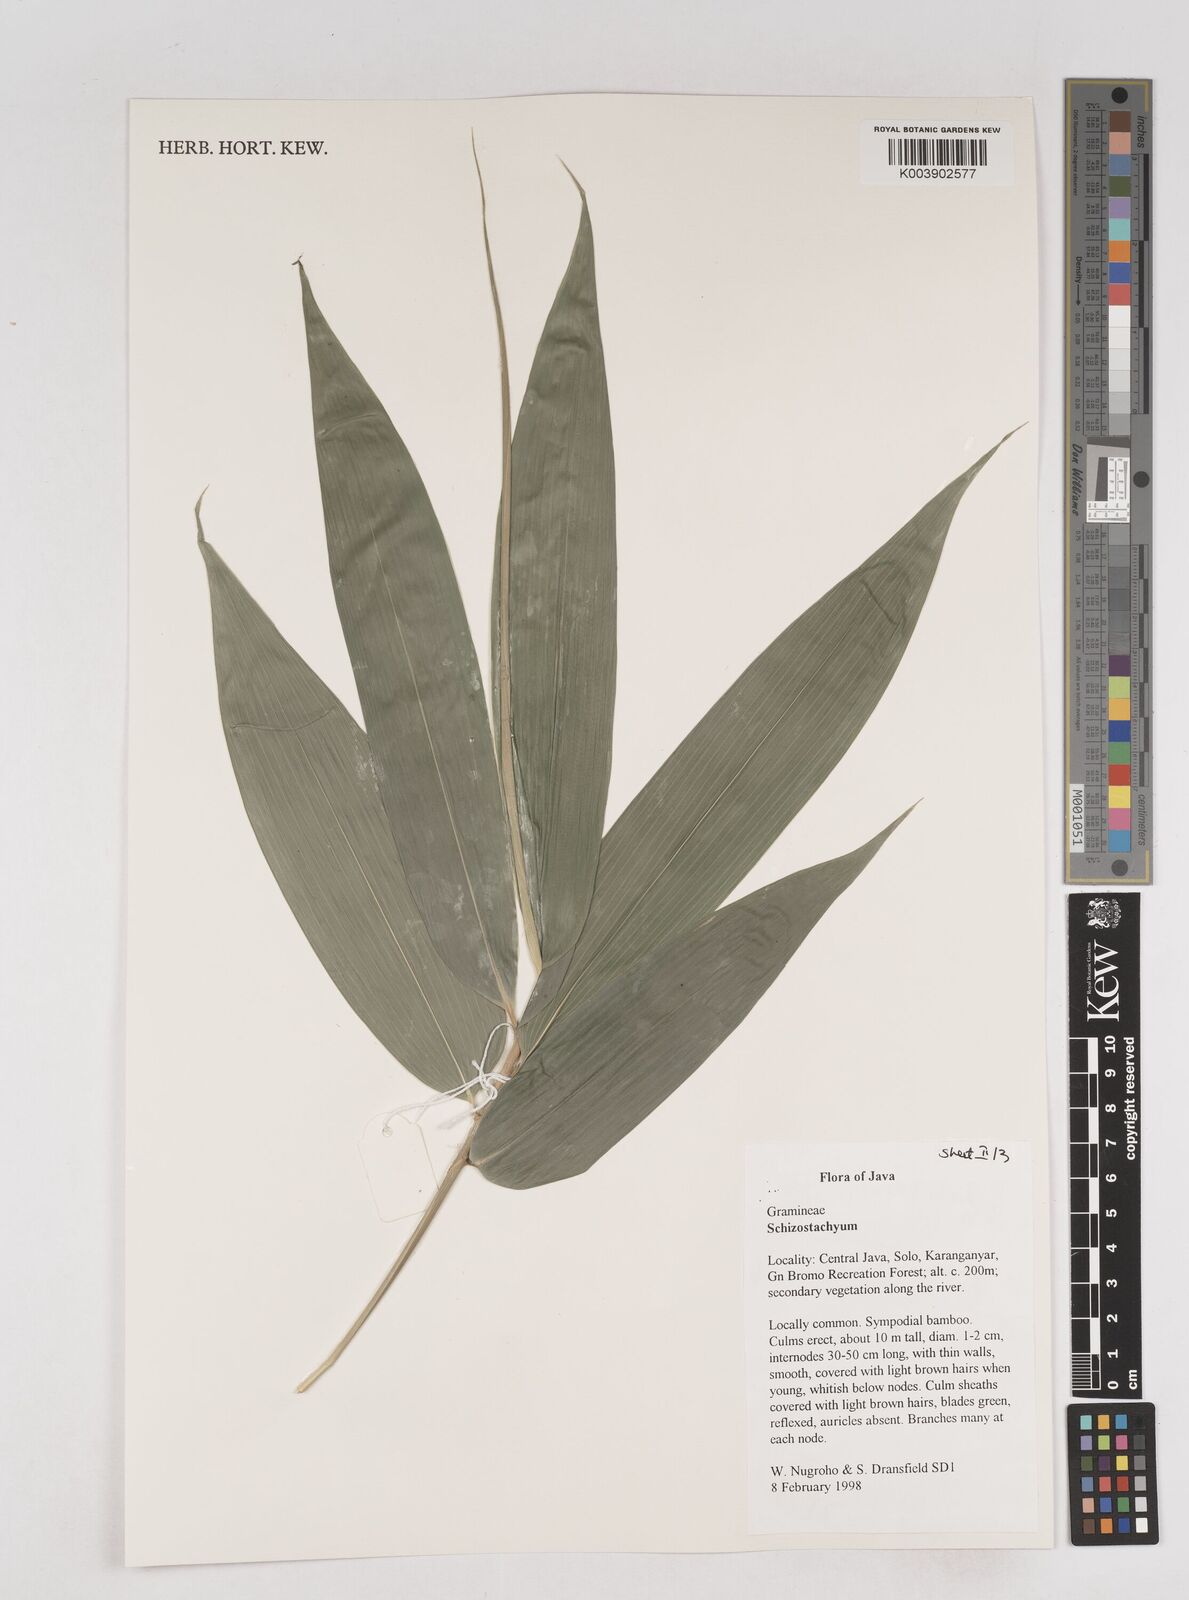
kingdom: Plantae
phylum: Tracheophyta
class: Liliopsida
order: Poales
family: Poaceae
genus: Schizostachyum
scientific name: Schizostachyum
